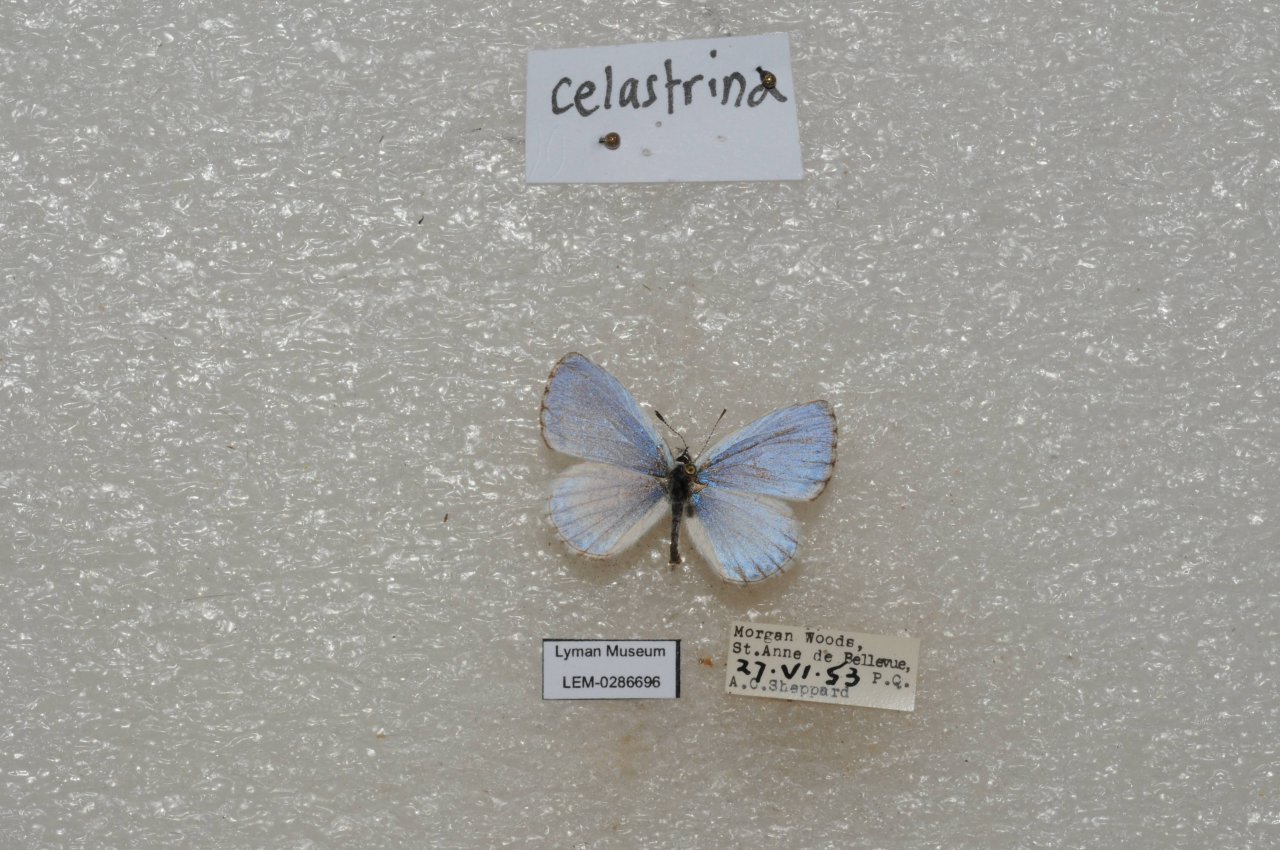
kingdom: Animalia
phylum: Arthropoda
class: Insecta
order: Lepidoptera
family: Lycaenidae
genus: Celastrina
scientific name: Celastrina lucia
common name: Northern Spring Azure
